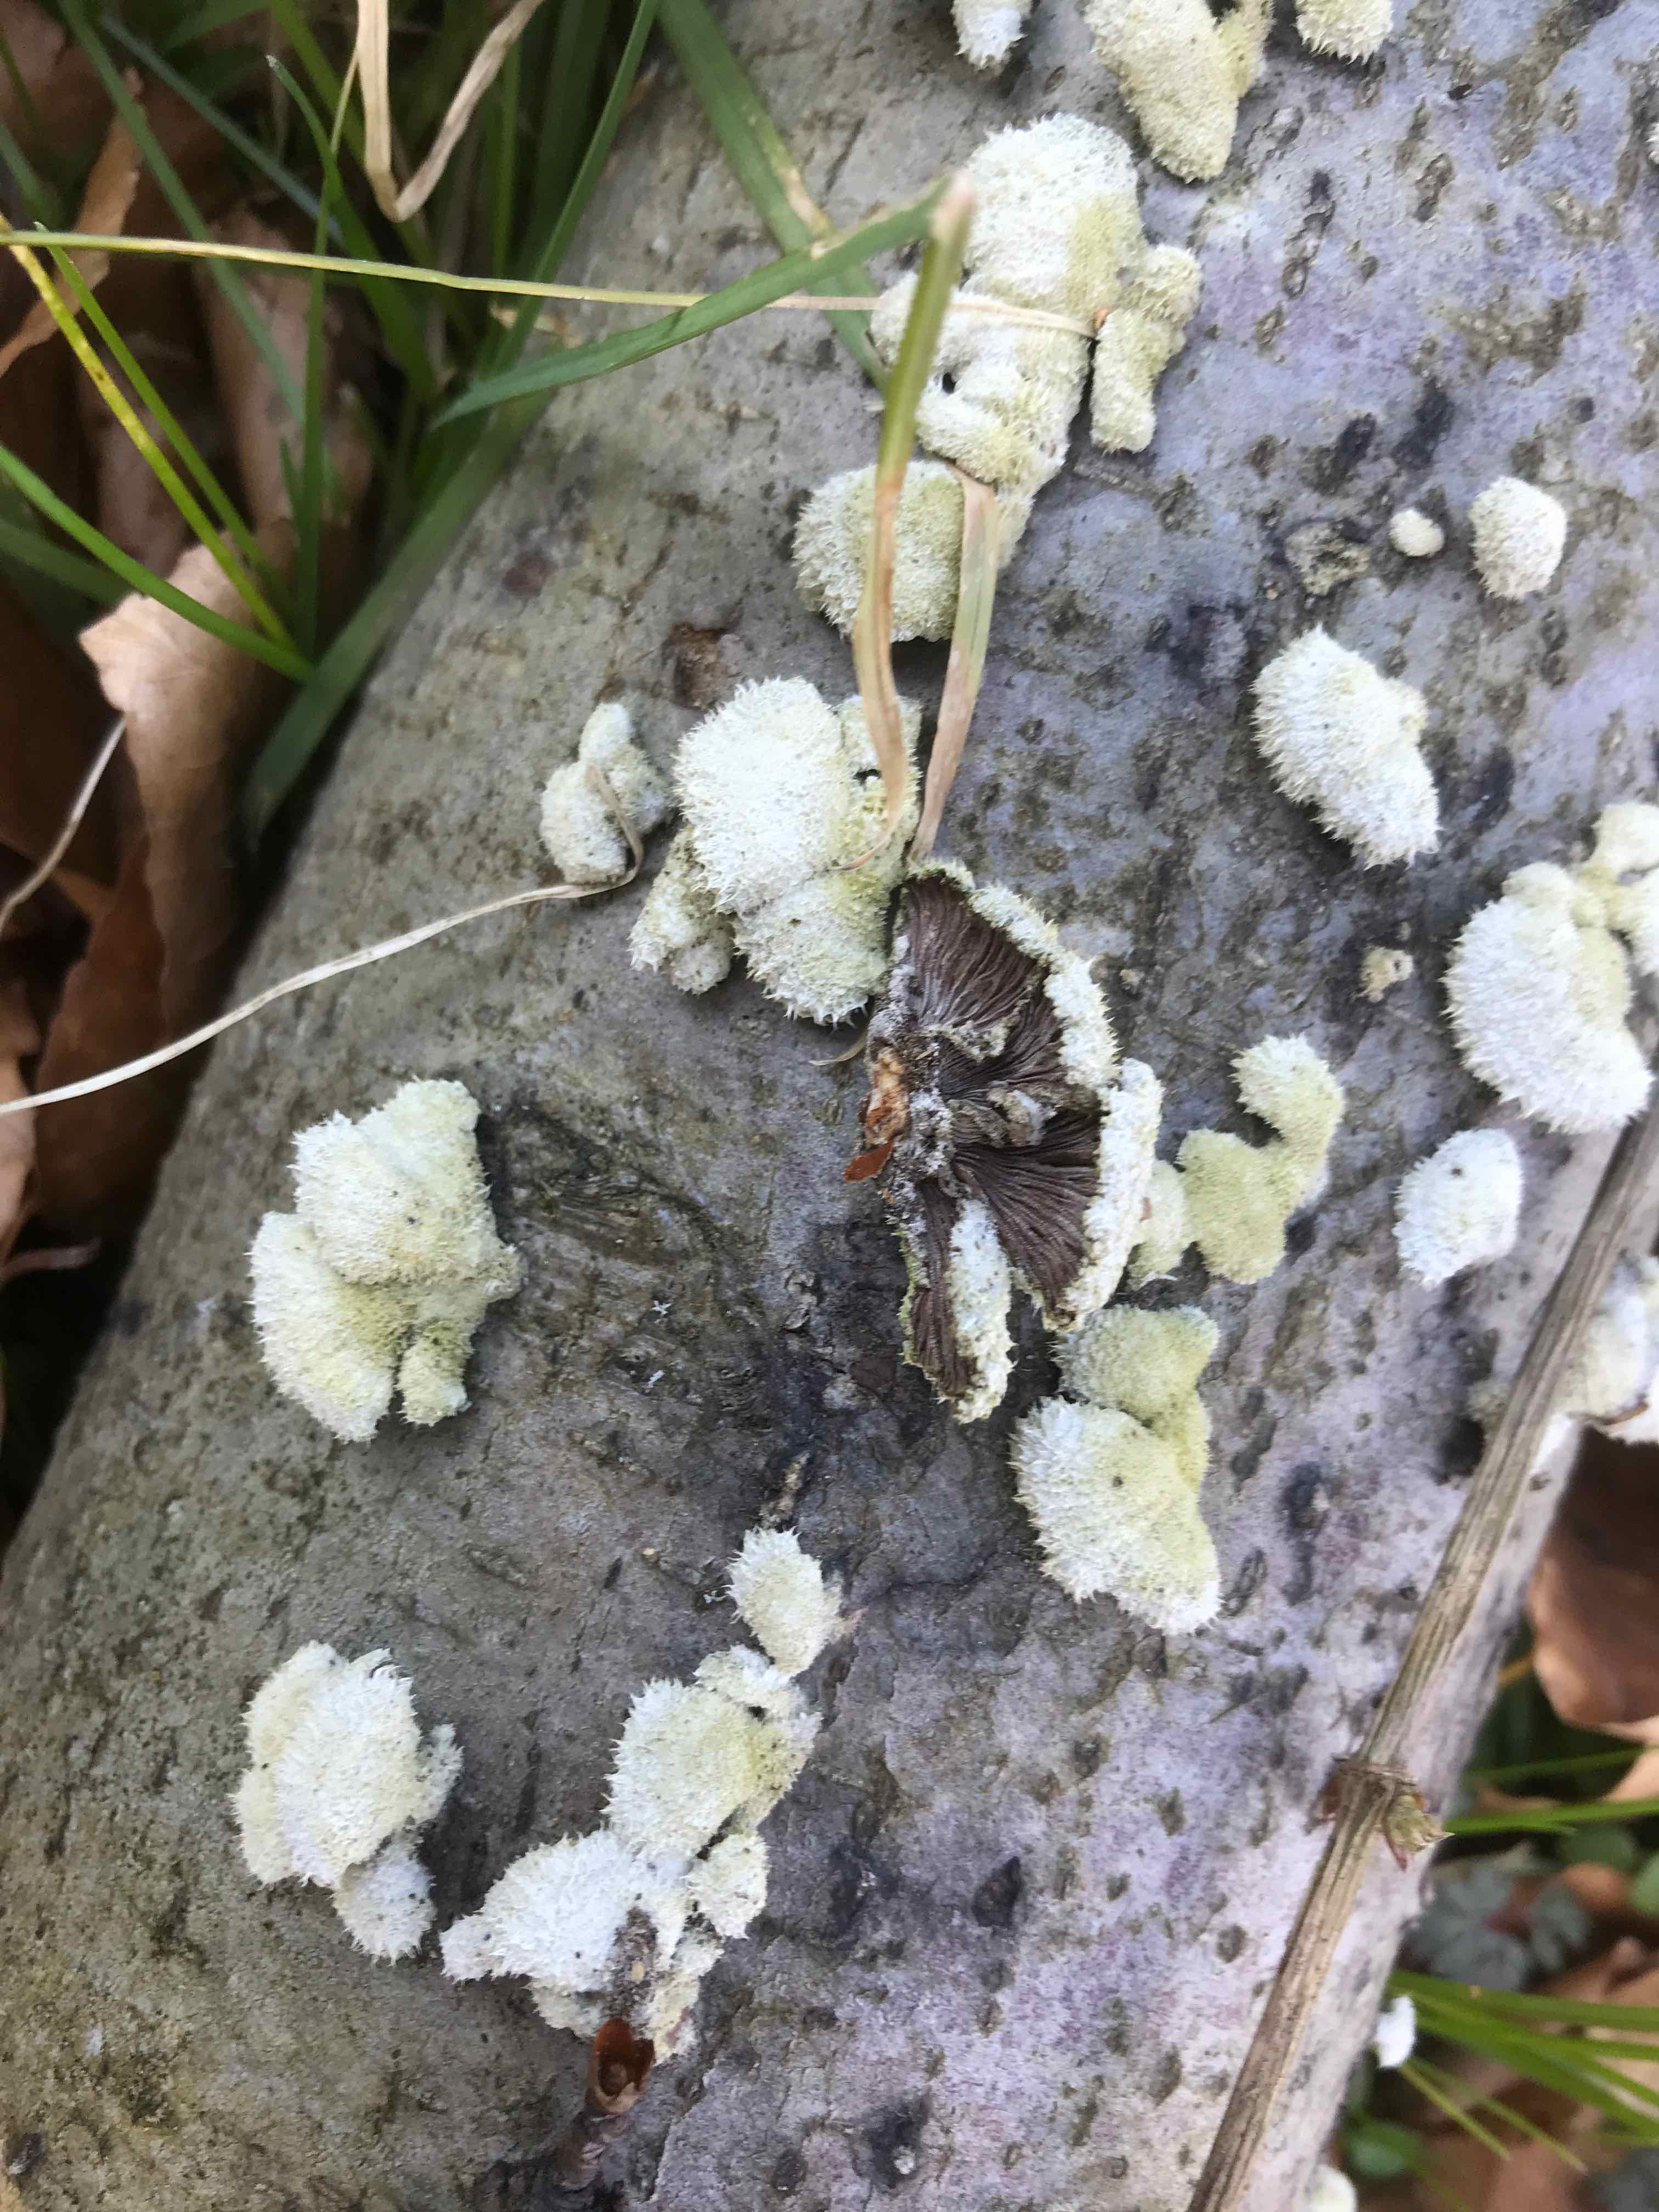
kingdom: Fungi
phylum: Basidiomycota
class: Agaricomycetes
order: Agaricales
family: Schizophyllaceae
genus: Schizophyllum
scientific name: Schizophyllum commune
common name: kløvblad
